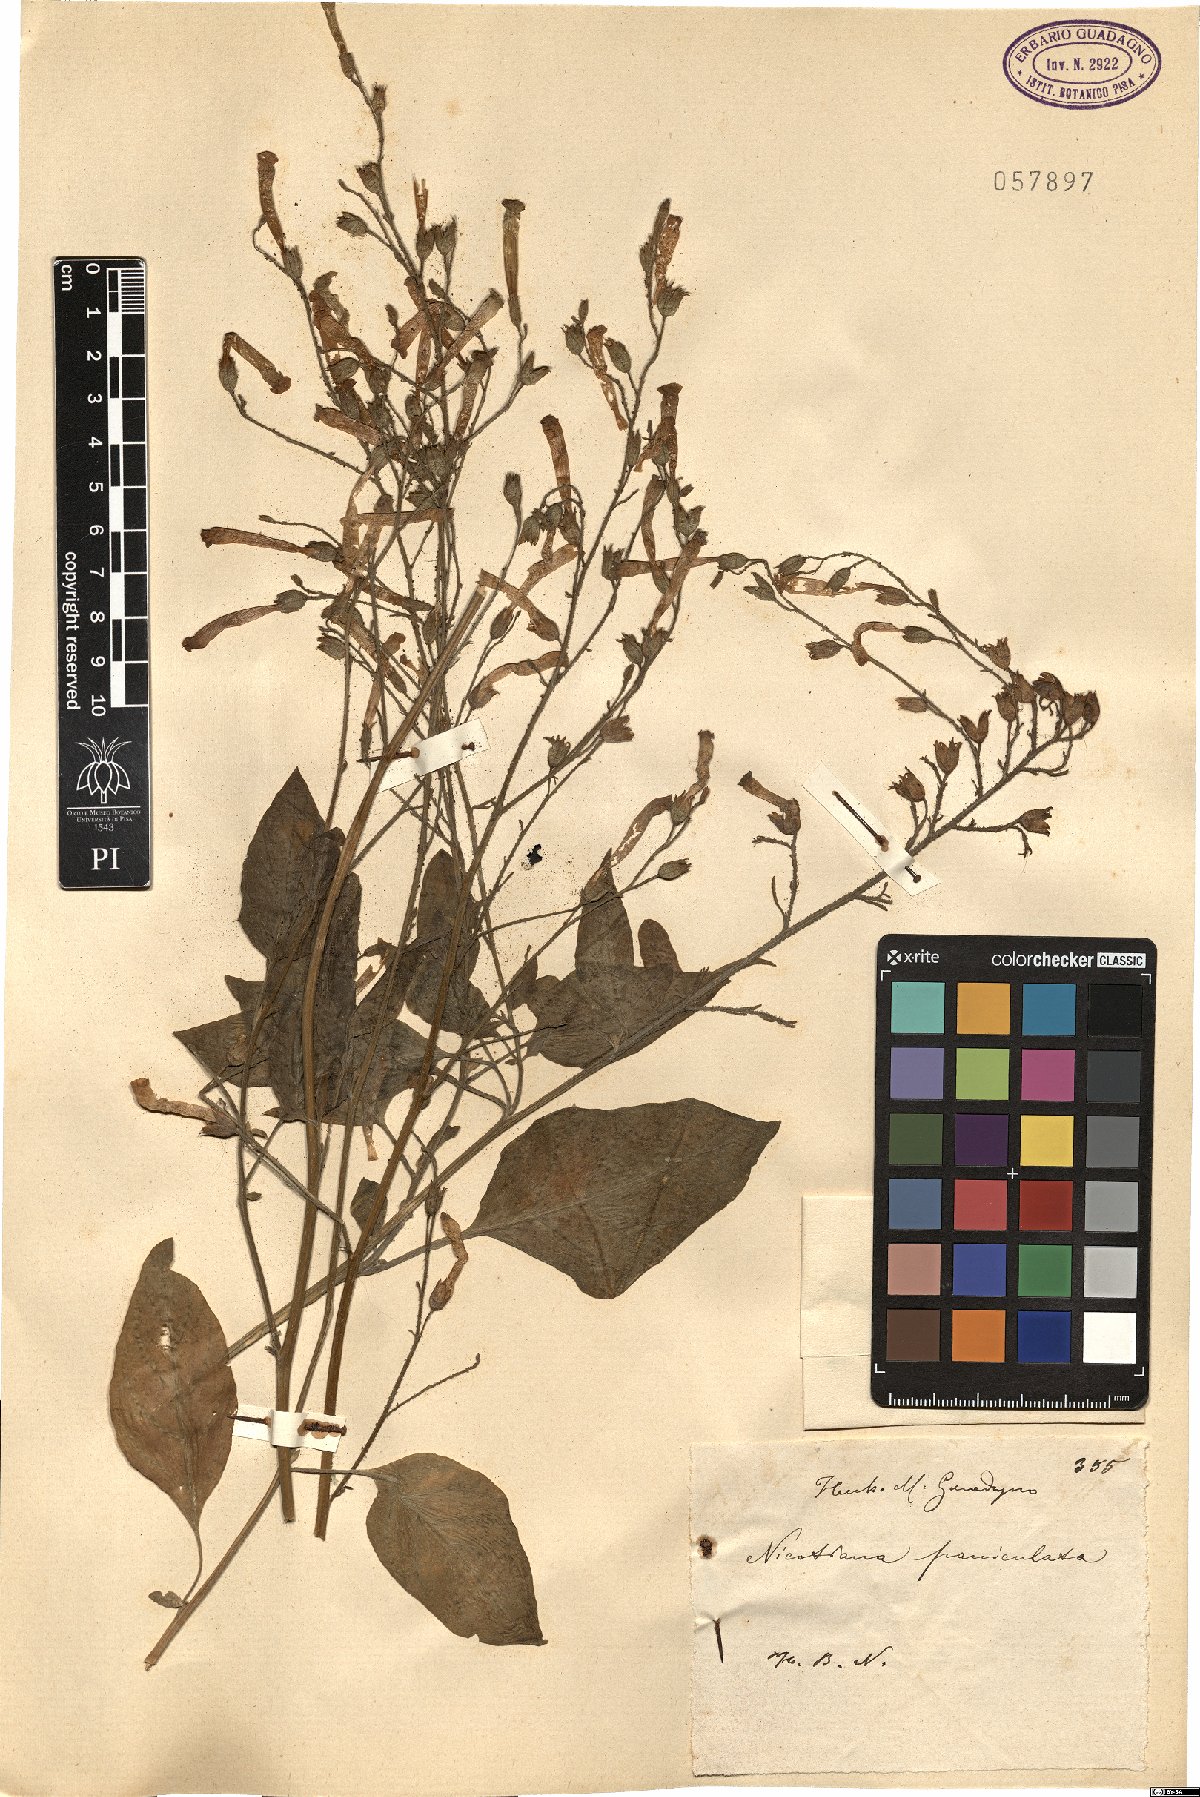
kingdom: Plantae
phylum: Tracheophyta
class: Magnoliopsida
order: Solanales
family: Solanaceae
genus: Nicotiana
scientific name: Nicotiana paniculata
